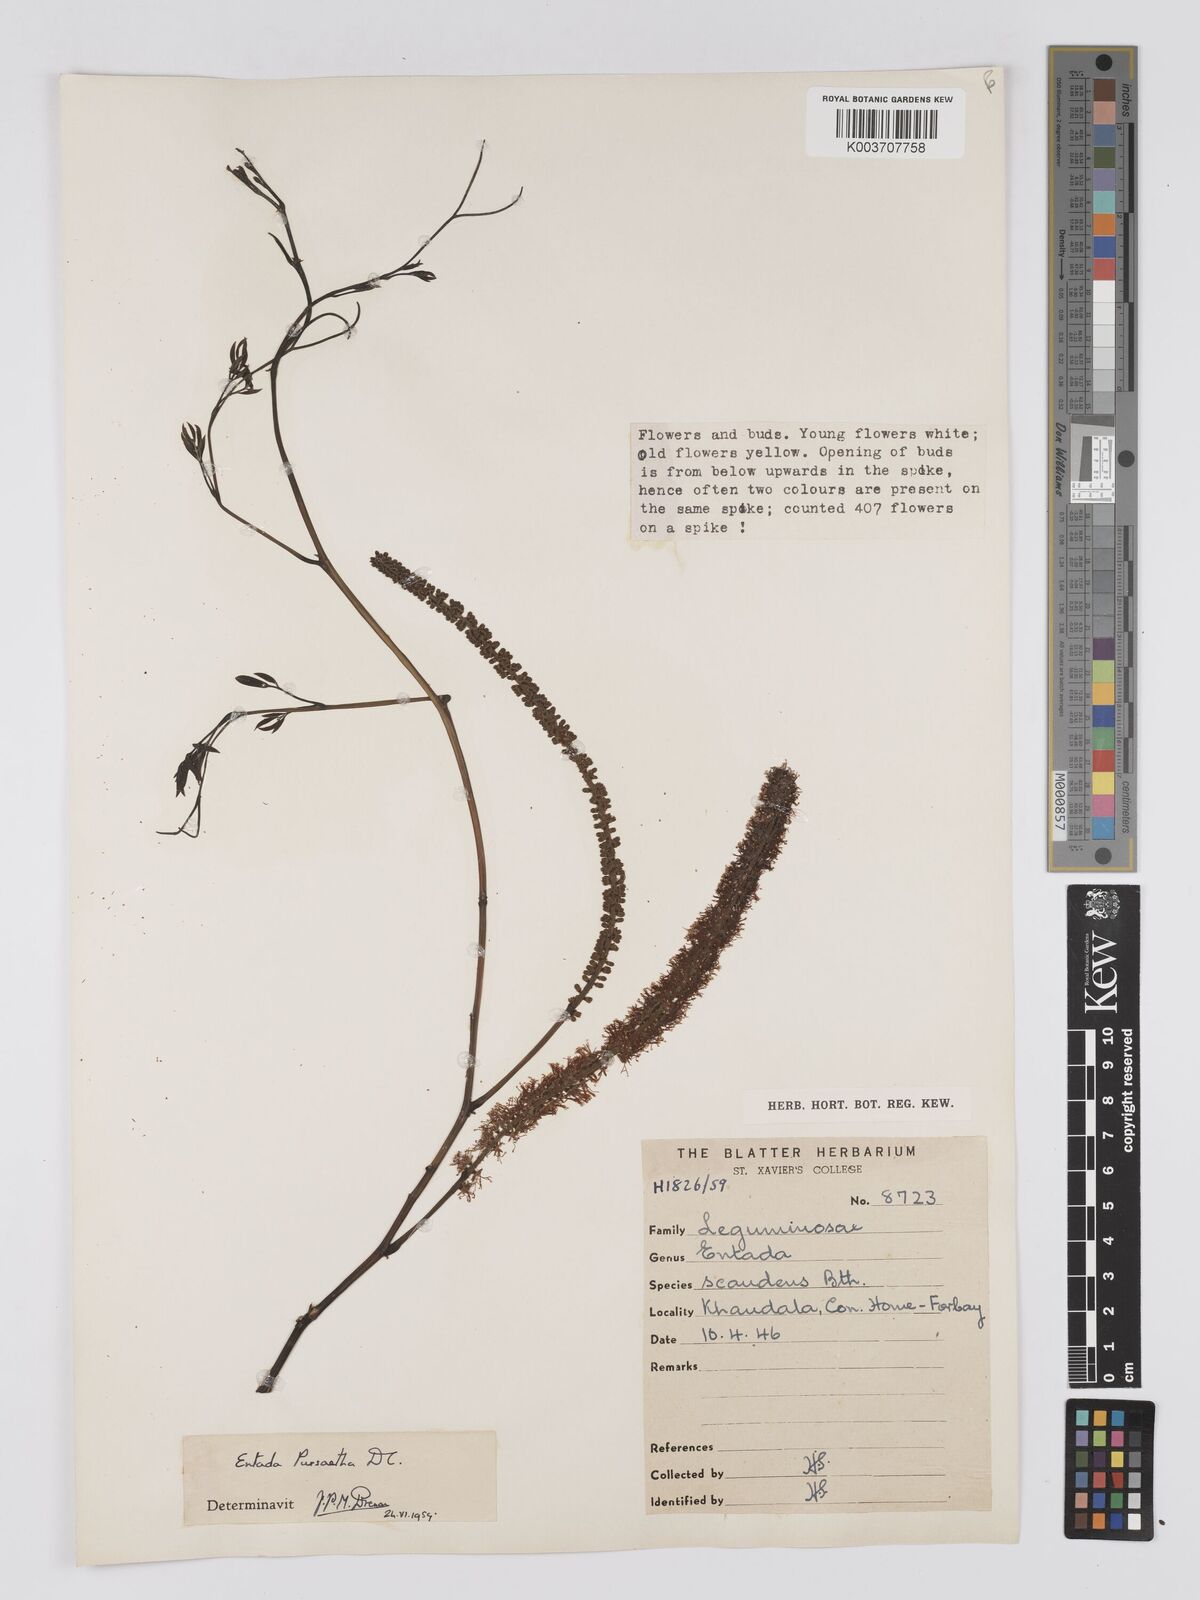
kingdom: Plantae
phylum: Tracheophyta
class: Magnoliopsida
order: Fabales
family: Fabaceae
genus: Entada
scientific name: Entada rheedei
